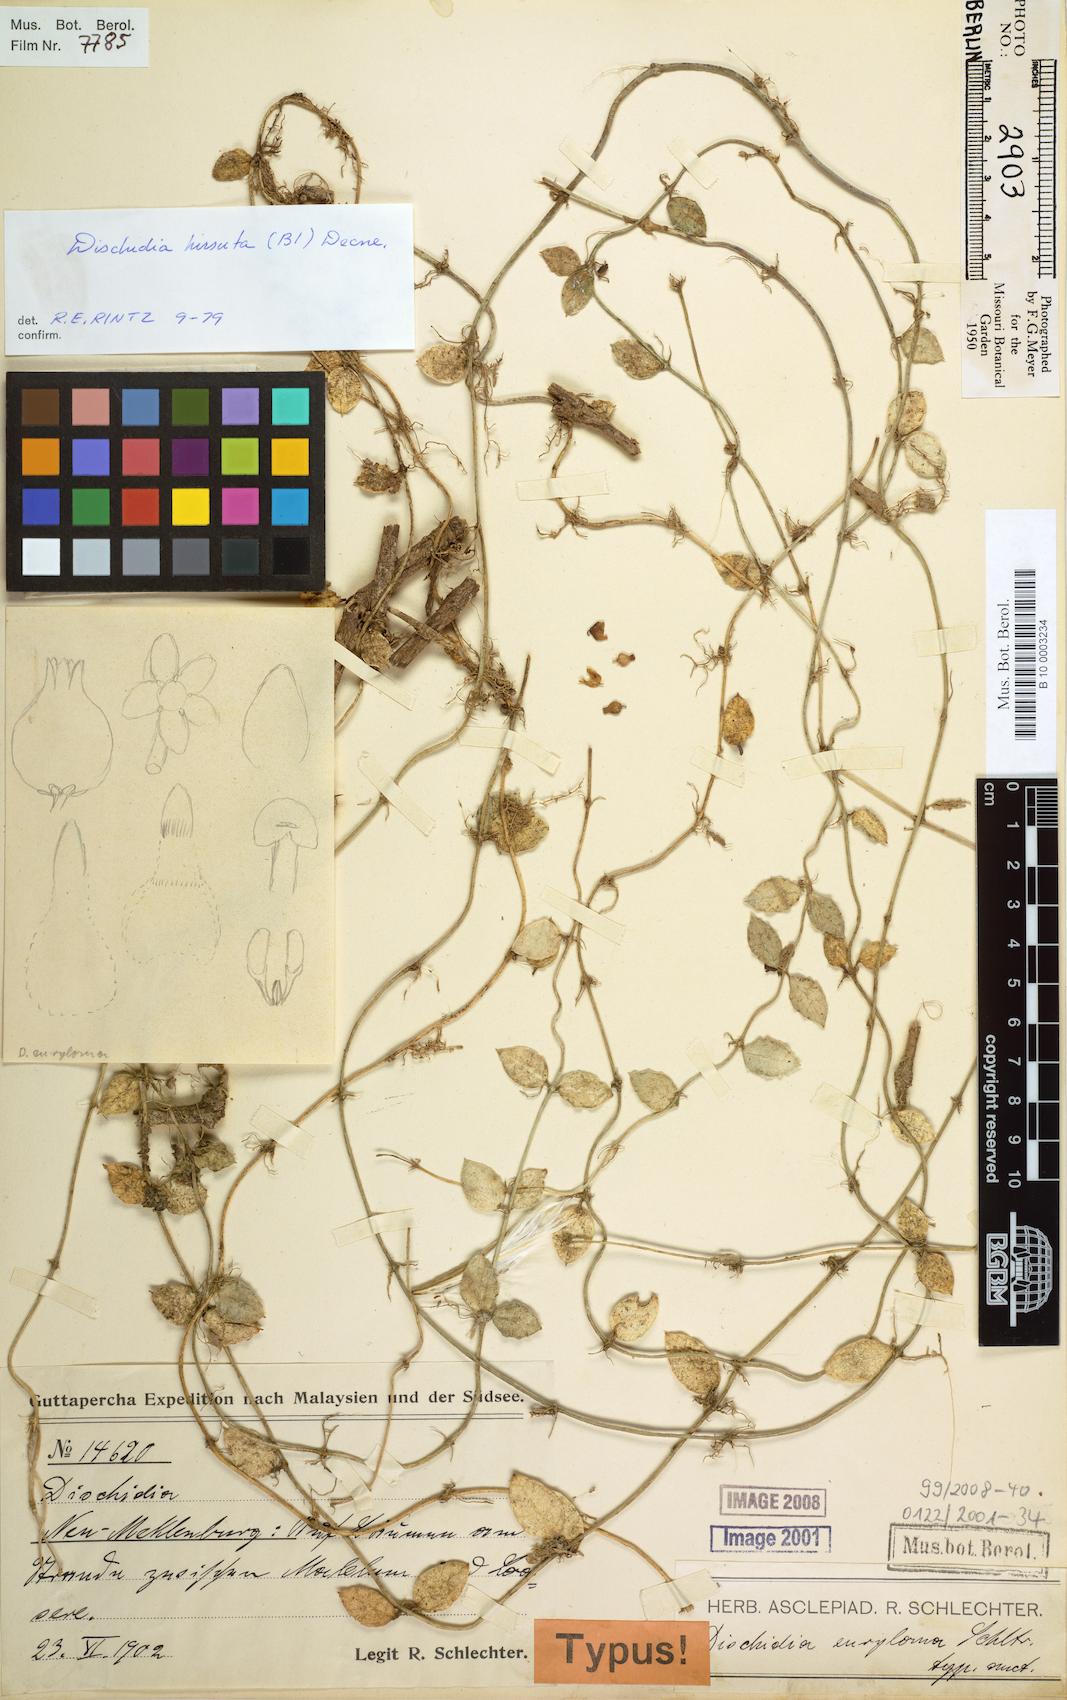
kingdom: Plantae
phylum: Tracheophyta
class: Magnoliopsida
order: Gentianales
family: Apocynaceae
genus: Dischidia
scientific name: Dischidia hirsuta
